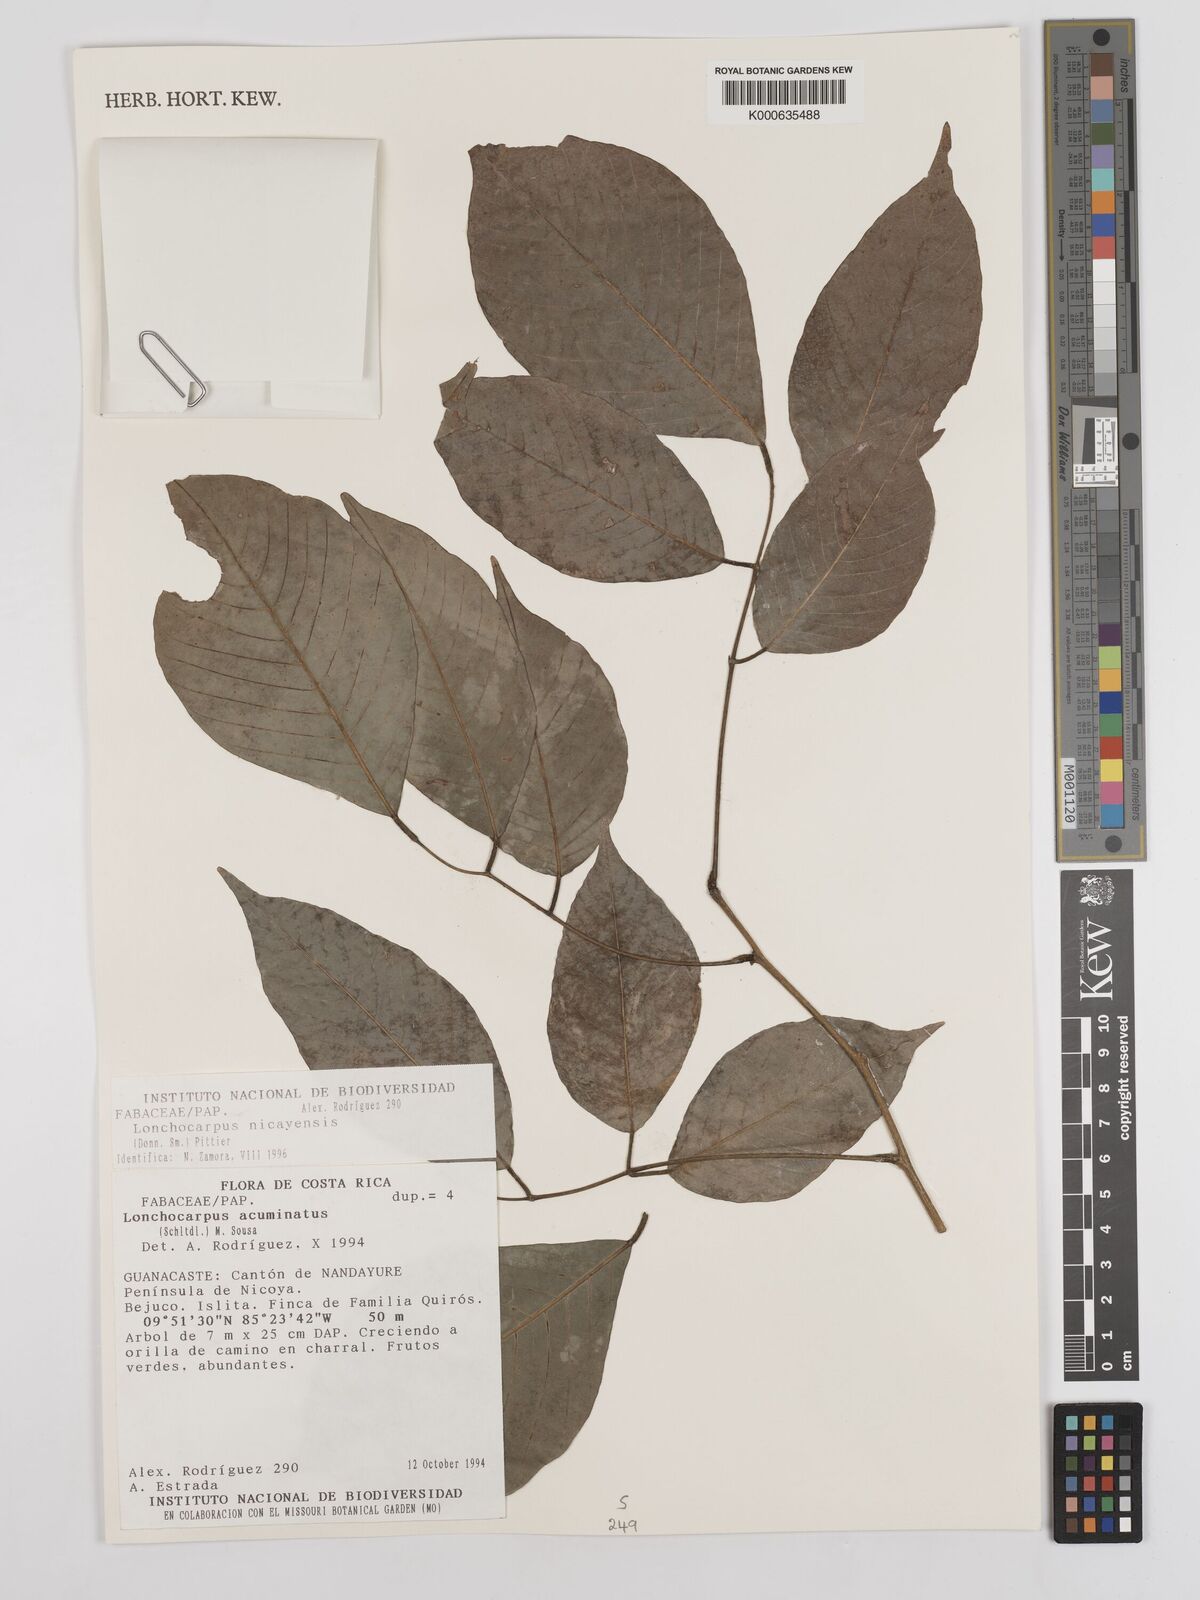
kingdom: Plantae
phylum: Tracheophyta
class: Magnoliopsida
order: Fabales
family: Fabaceae
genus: Lonchocarpus
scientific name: Lonchocarpus acuminatus
